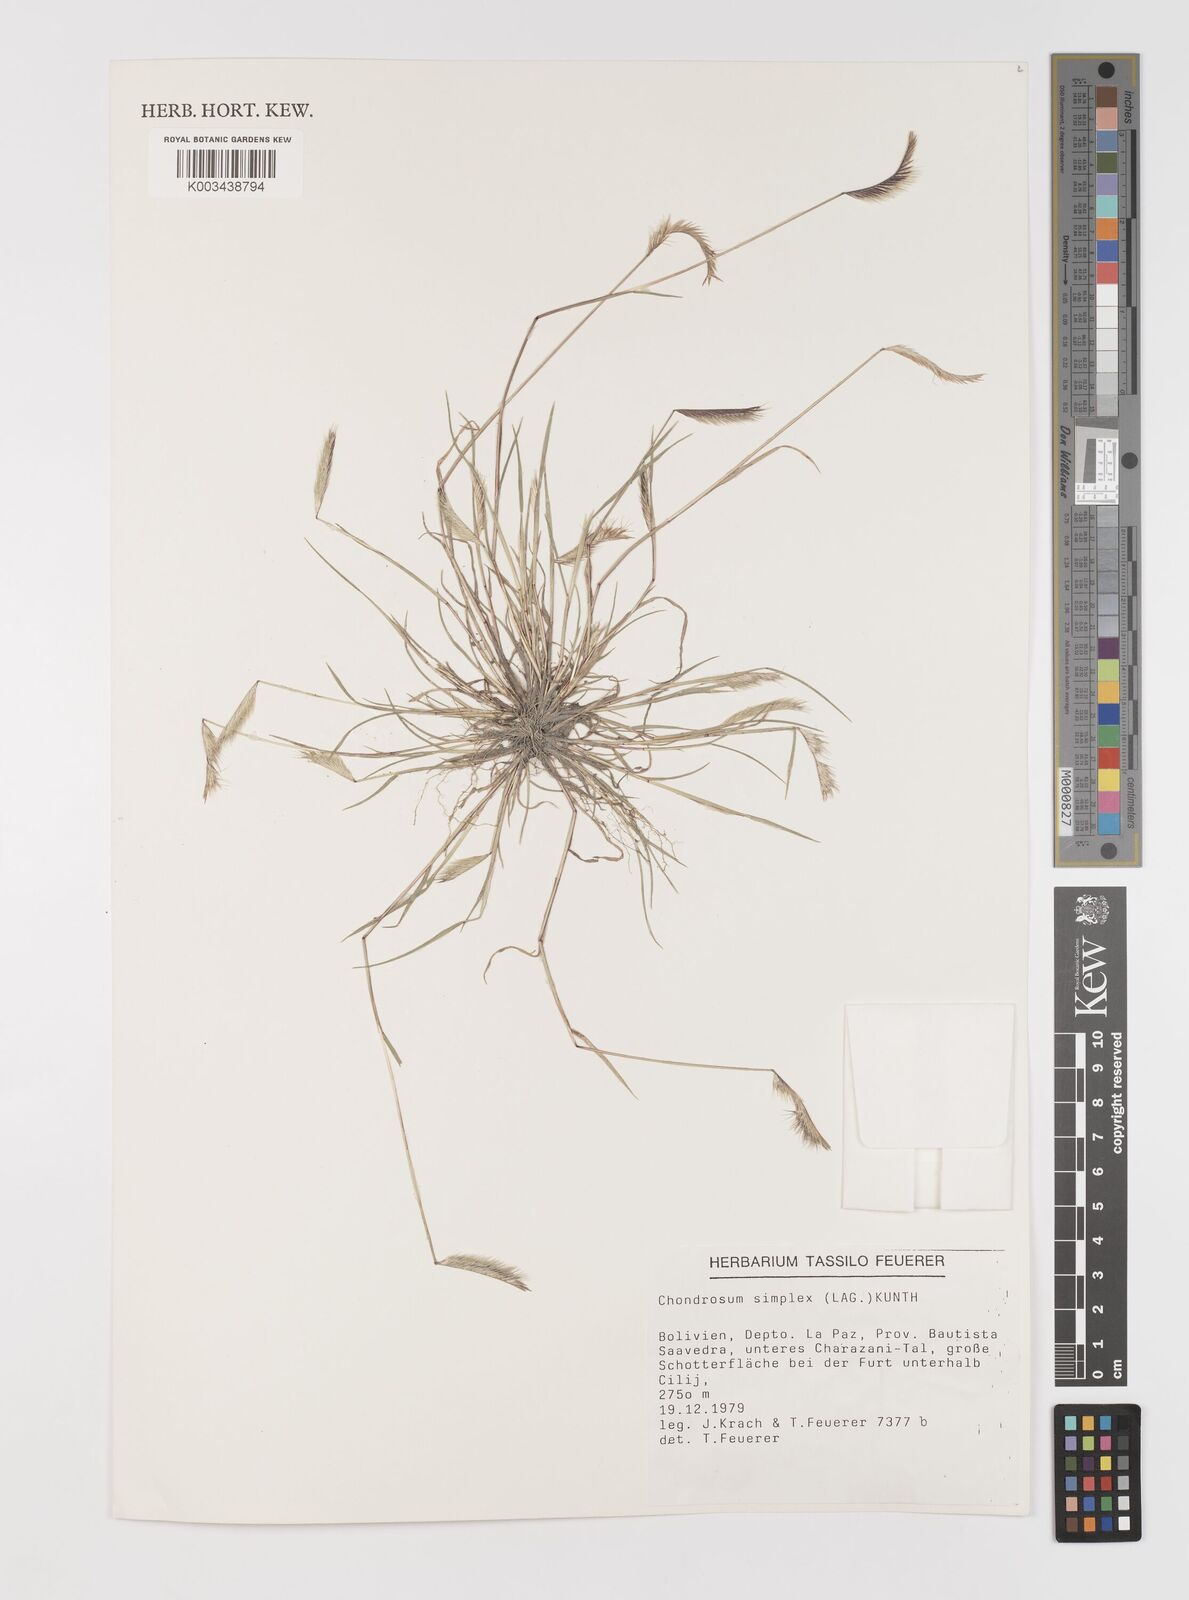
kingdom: Plantae
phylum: Tracheophyta
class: Liliopsida
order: Poales
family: Poaceae
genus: Bouteloua
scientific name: Bouteloua simplex
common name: Mat grama
